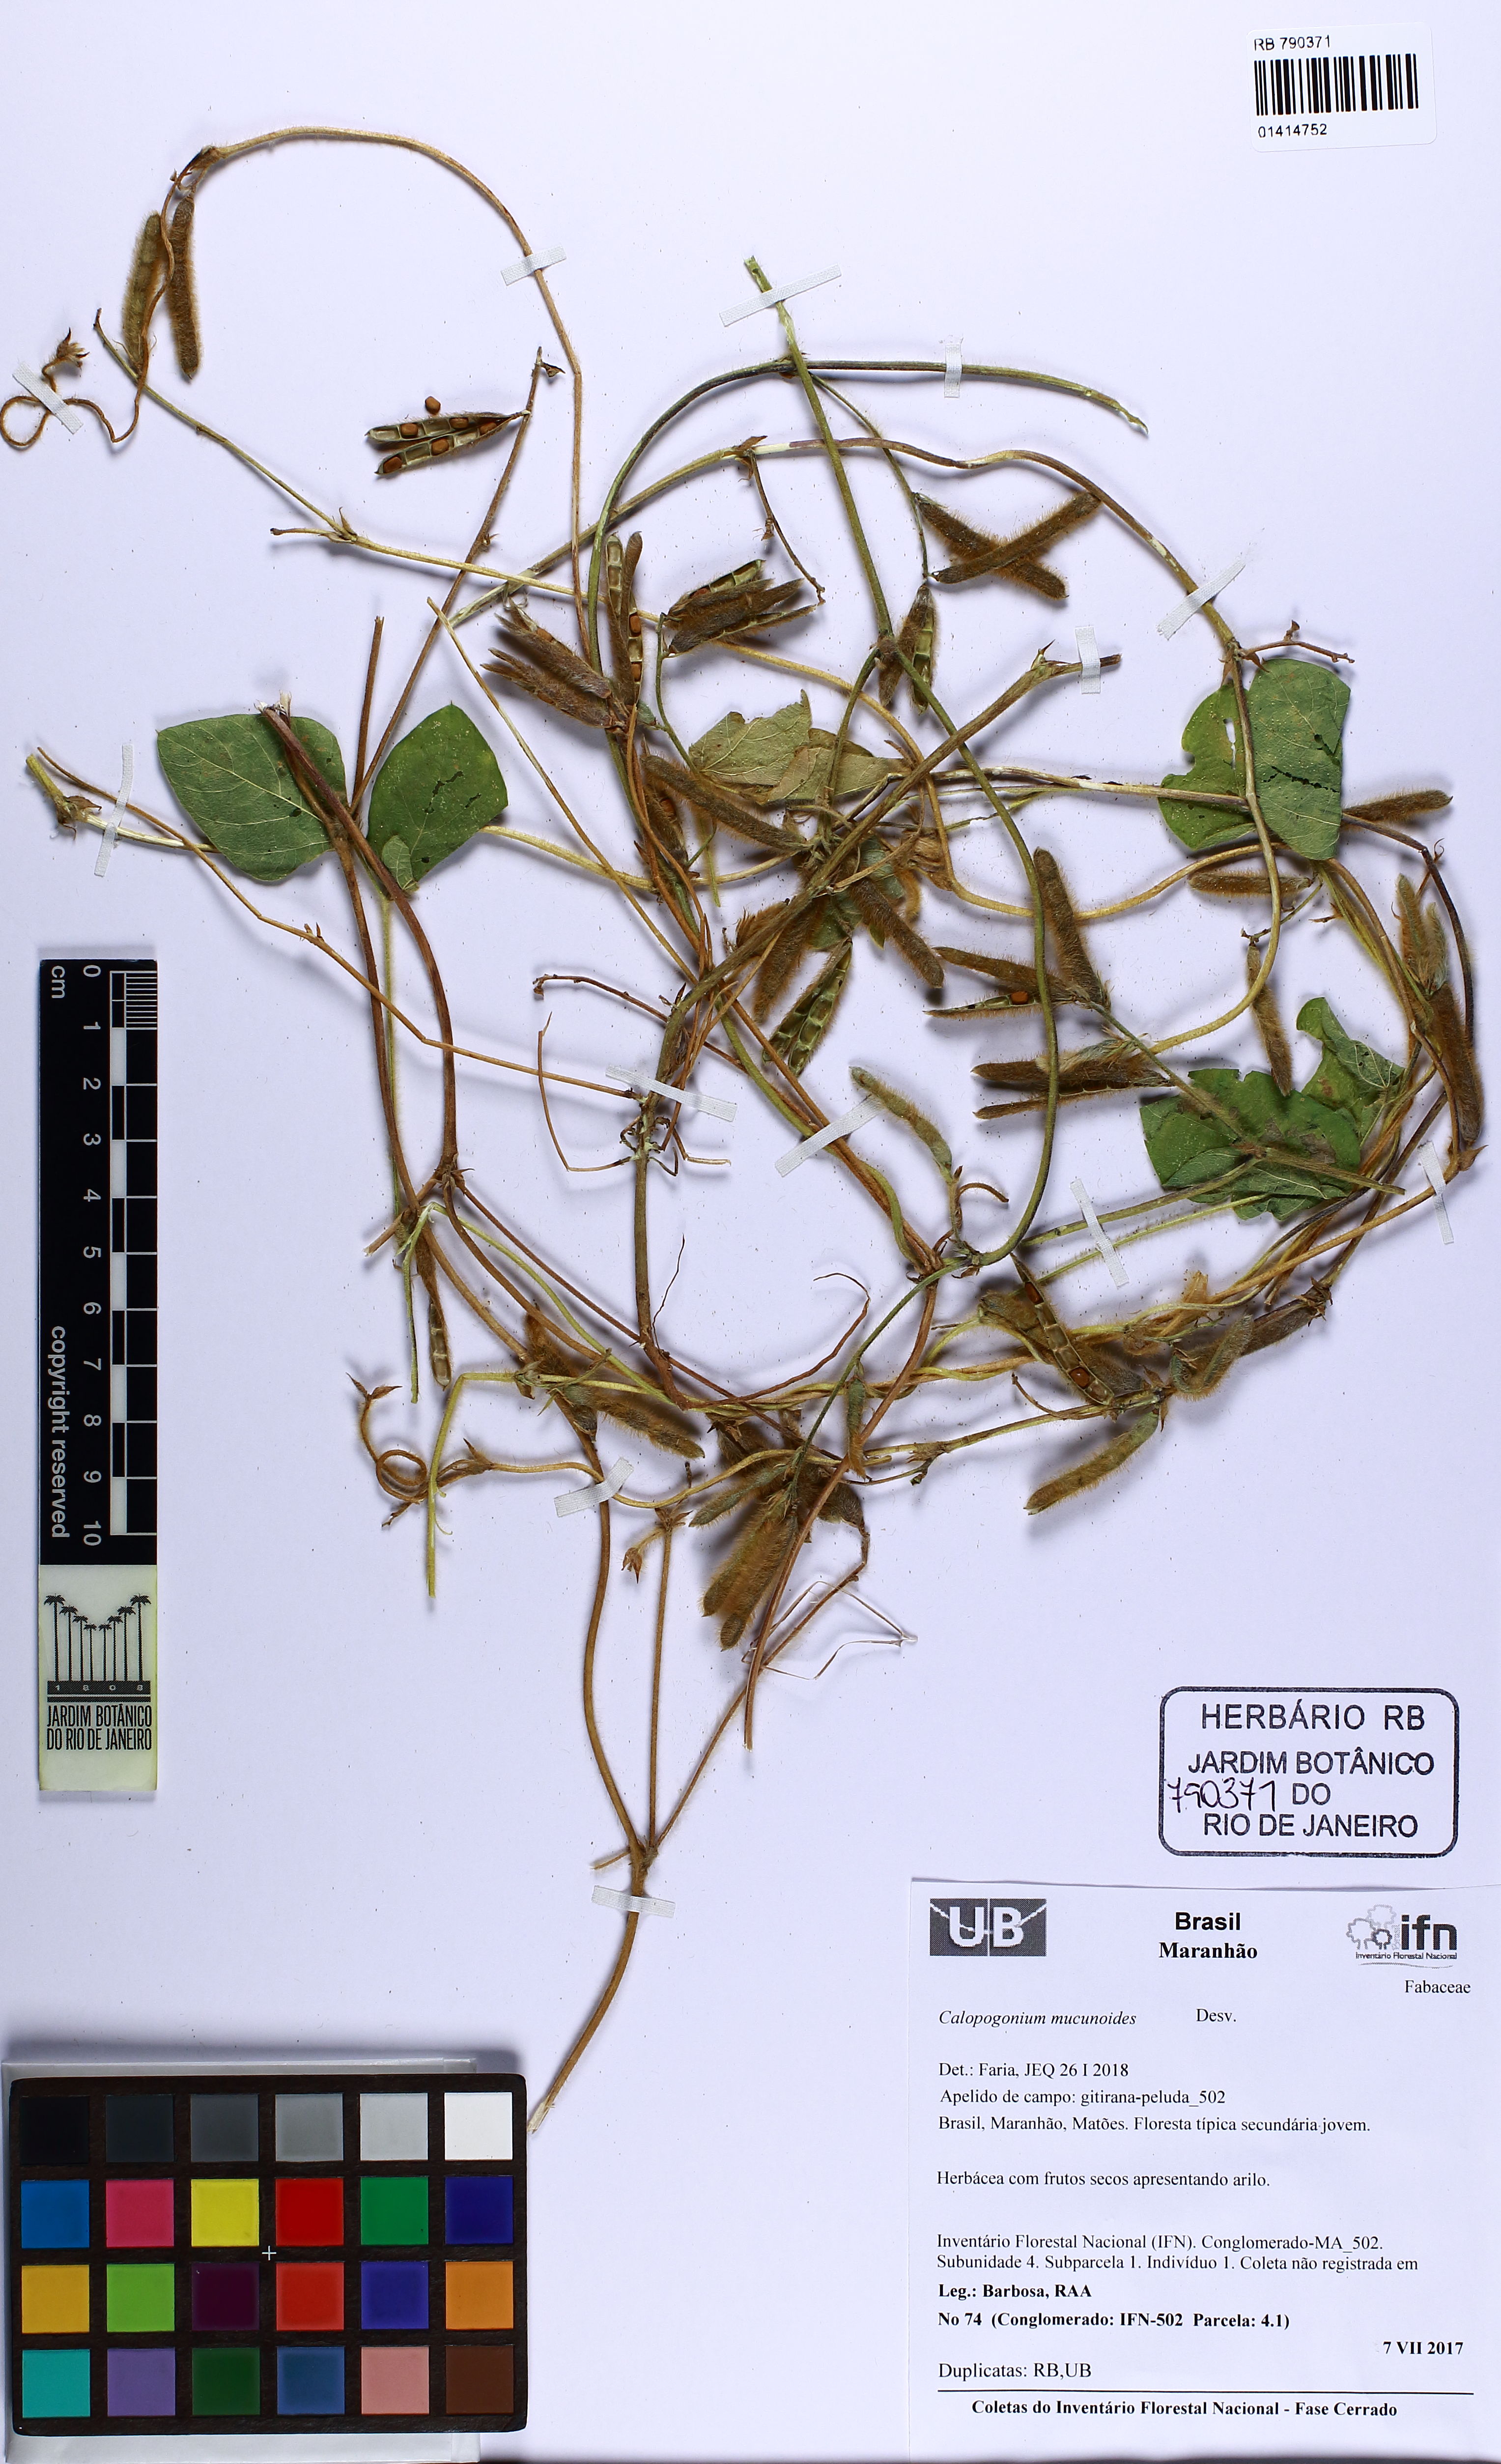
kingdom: Plantae
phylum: Tracheophyta
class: Magnoliopsida
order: Fabales
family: Fabaceae
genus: Calopogonium
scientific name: Calopogonium mucunoides
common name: Calopo
